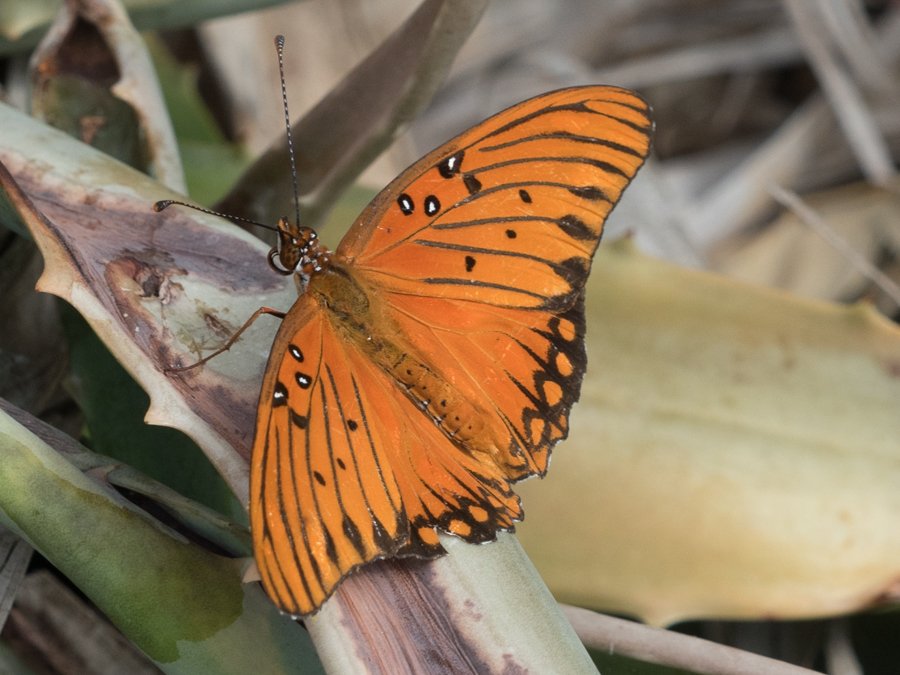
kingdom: Animalia
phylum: Arthropoda
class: Insecta
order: Lepidoptera
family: Nymphalidae
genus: Dione
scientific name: Dione vanillae
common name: Gulf Fritillary
